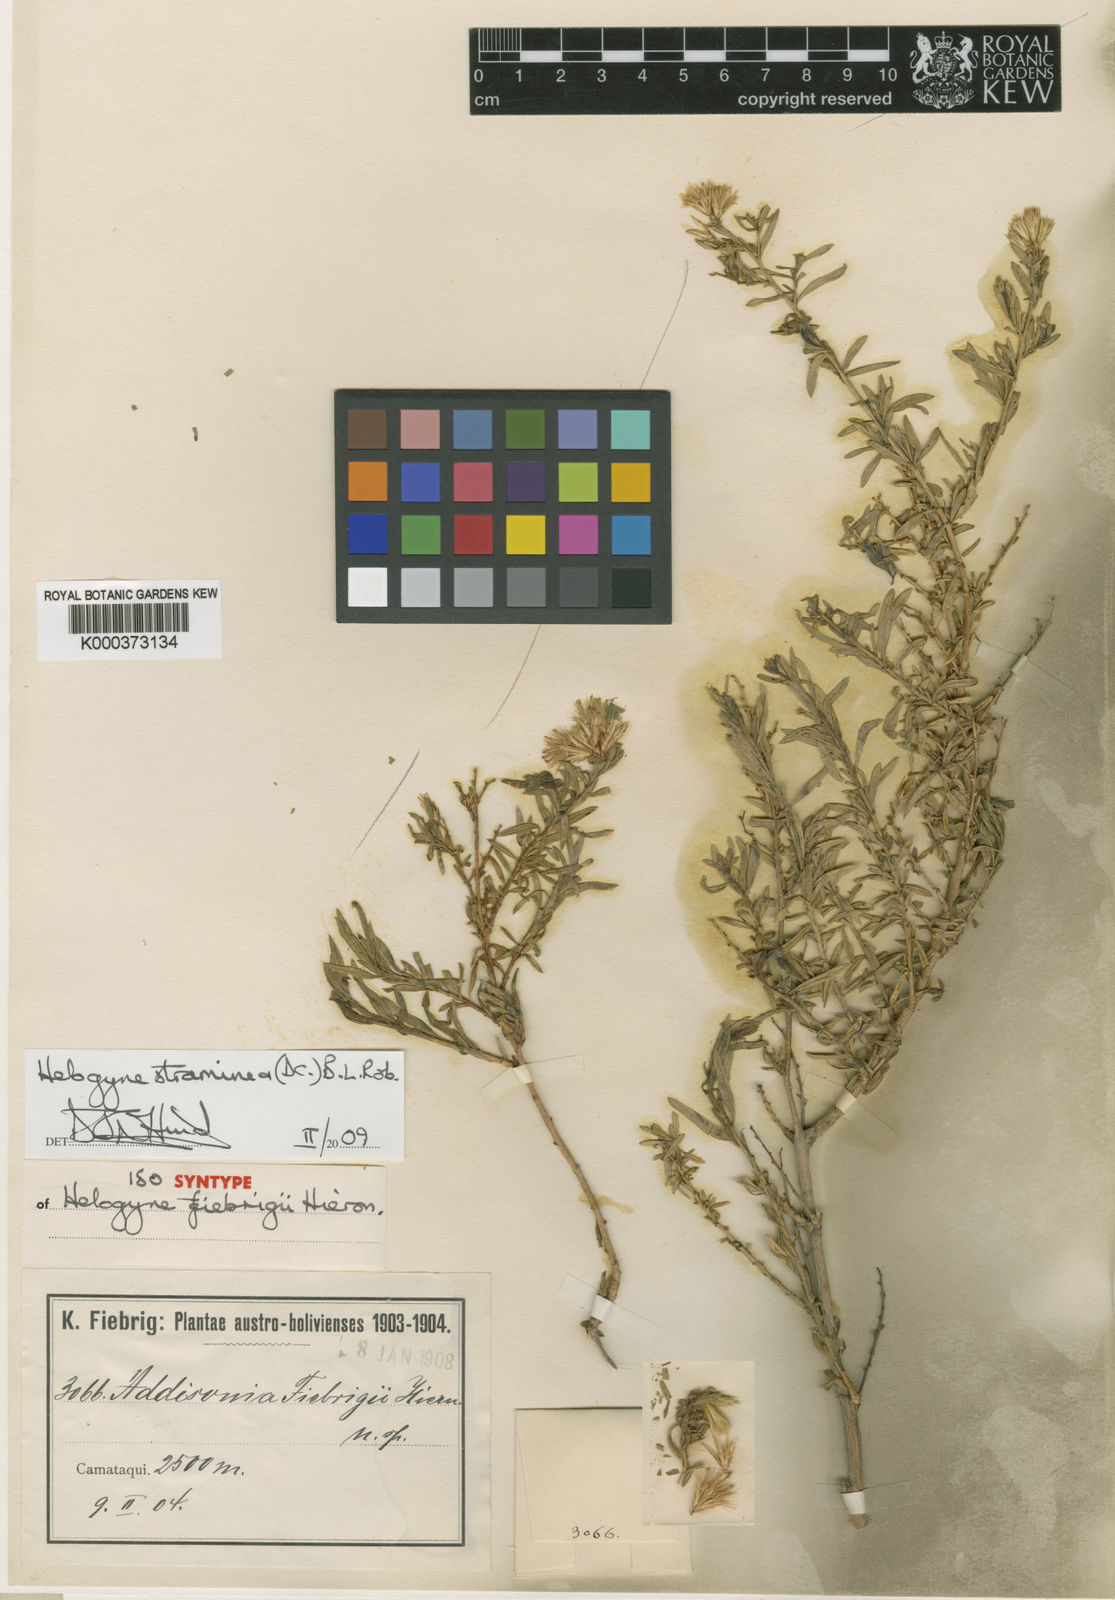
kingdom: Plantae
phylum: Tracheophyta
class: Magnoliopsida
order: Asterales
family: Asteraceae
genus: Helogyne
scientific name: Helogyne straminea
